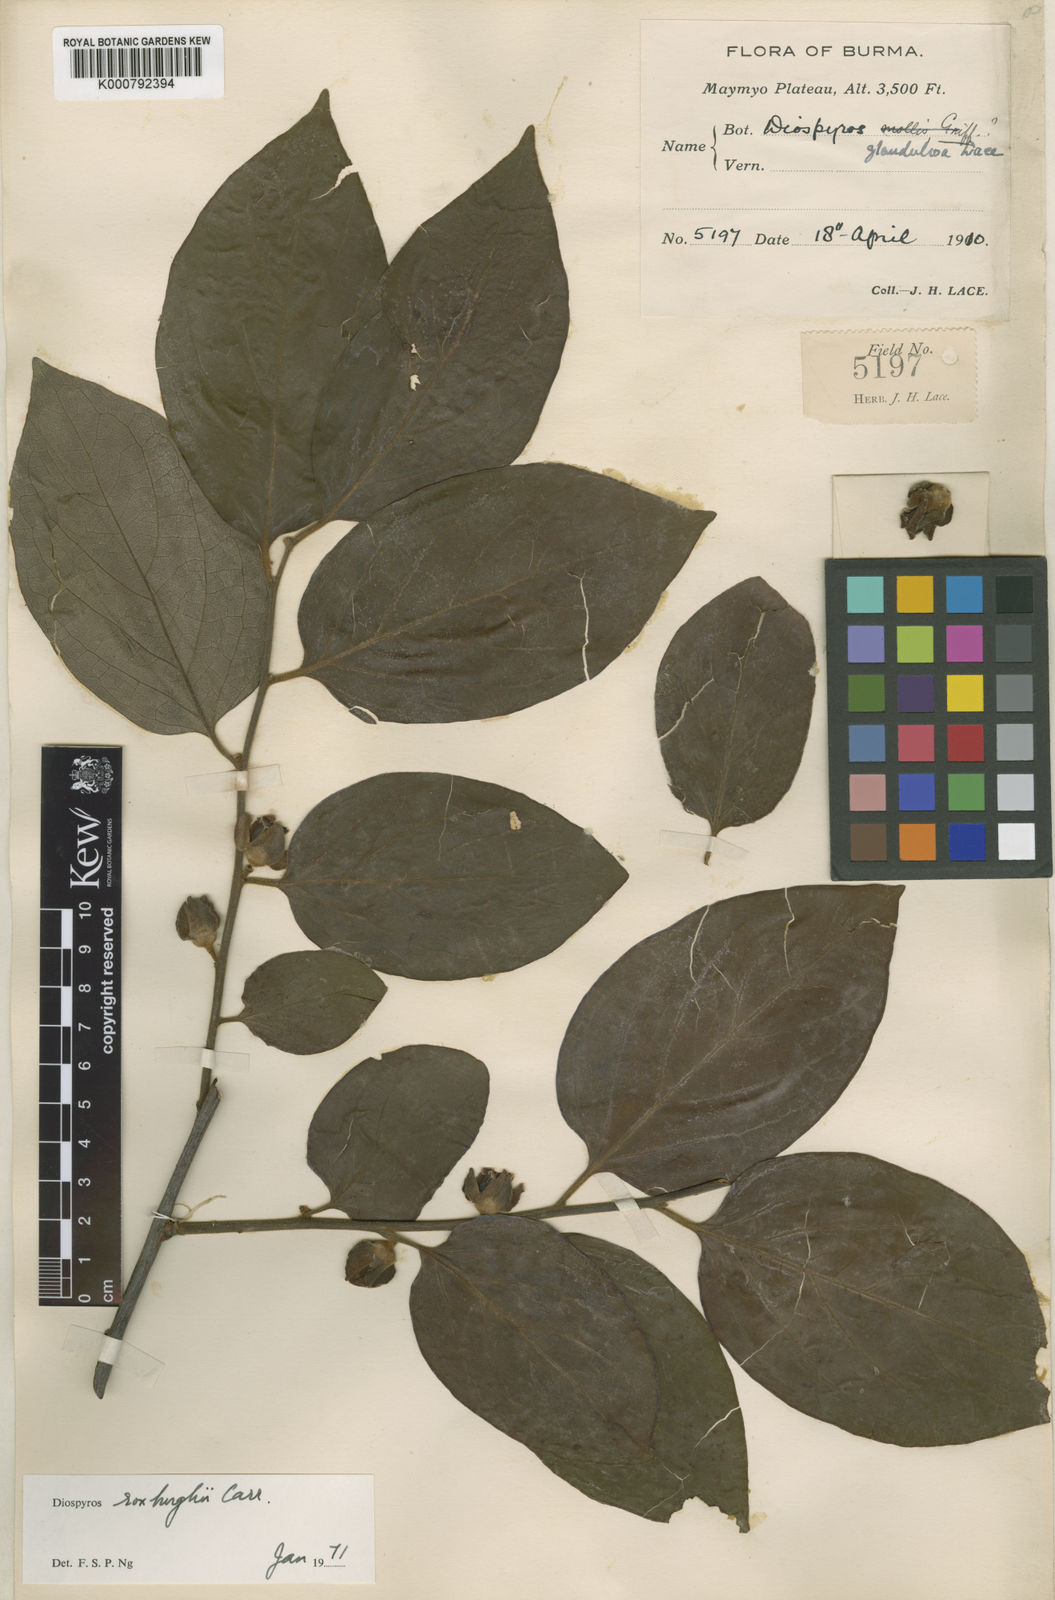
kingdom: Plantae
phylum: Tracheophyta
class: Magnoliopsida
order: Ericales
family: Ebenaceae
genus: Diospyros
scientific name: Diospyros glandulosa
